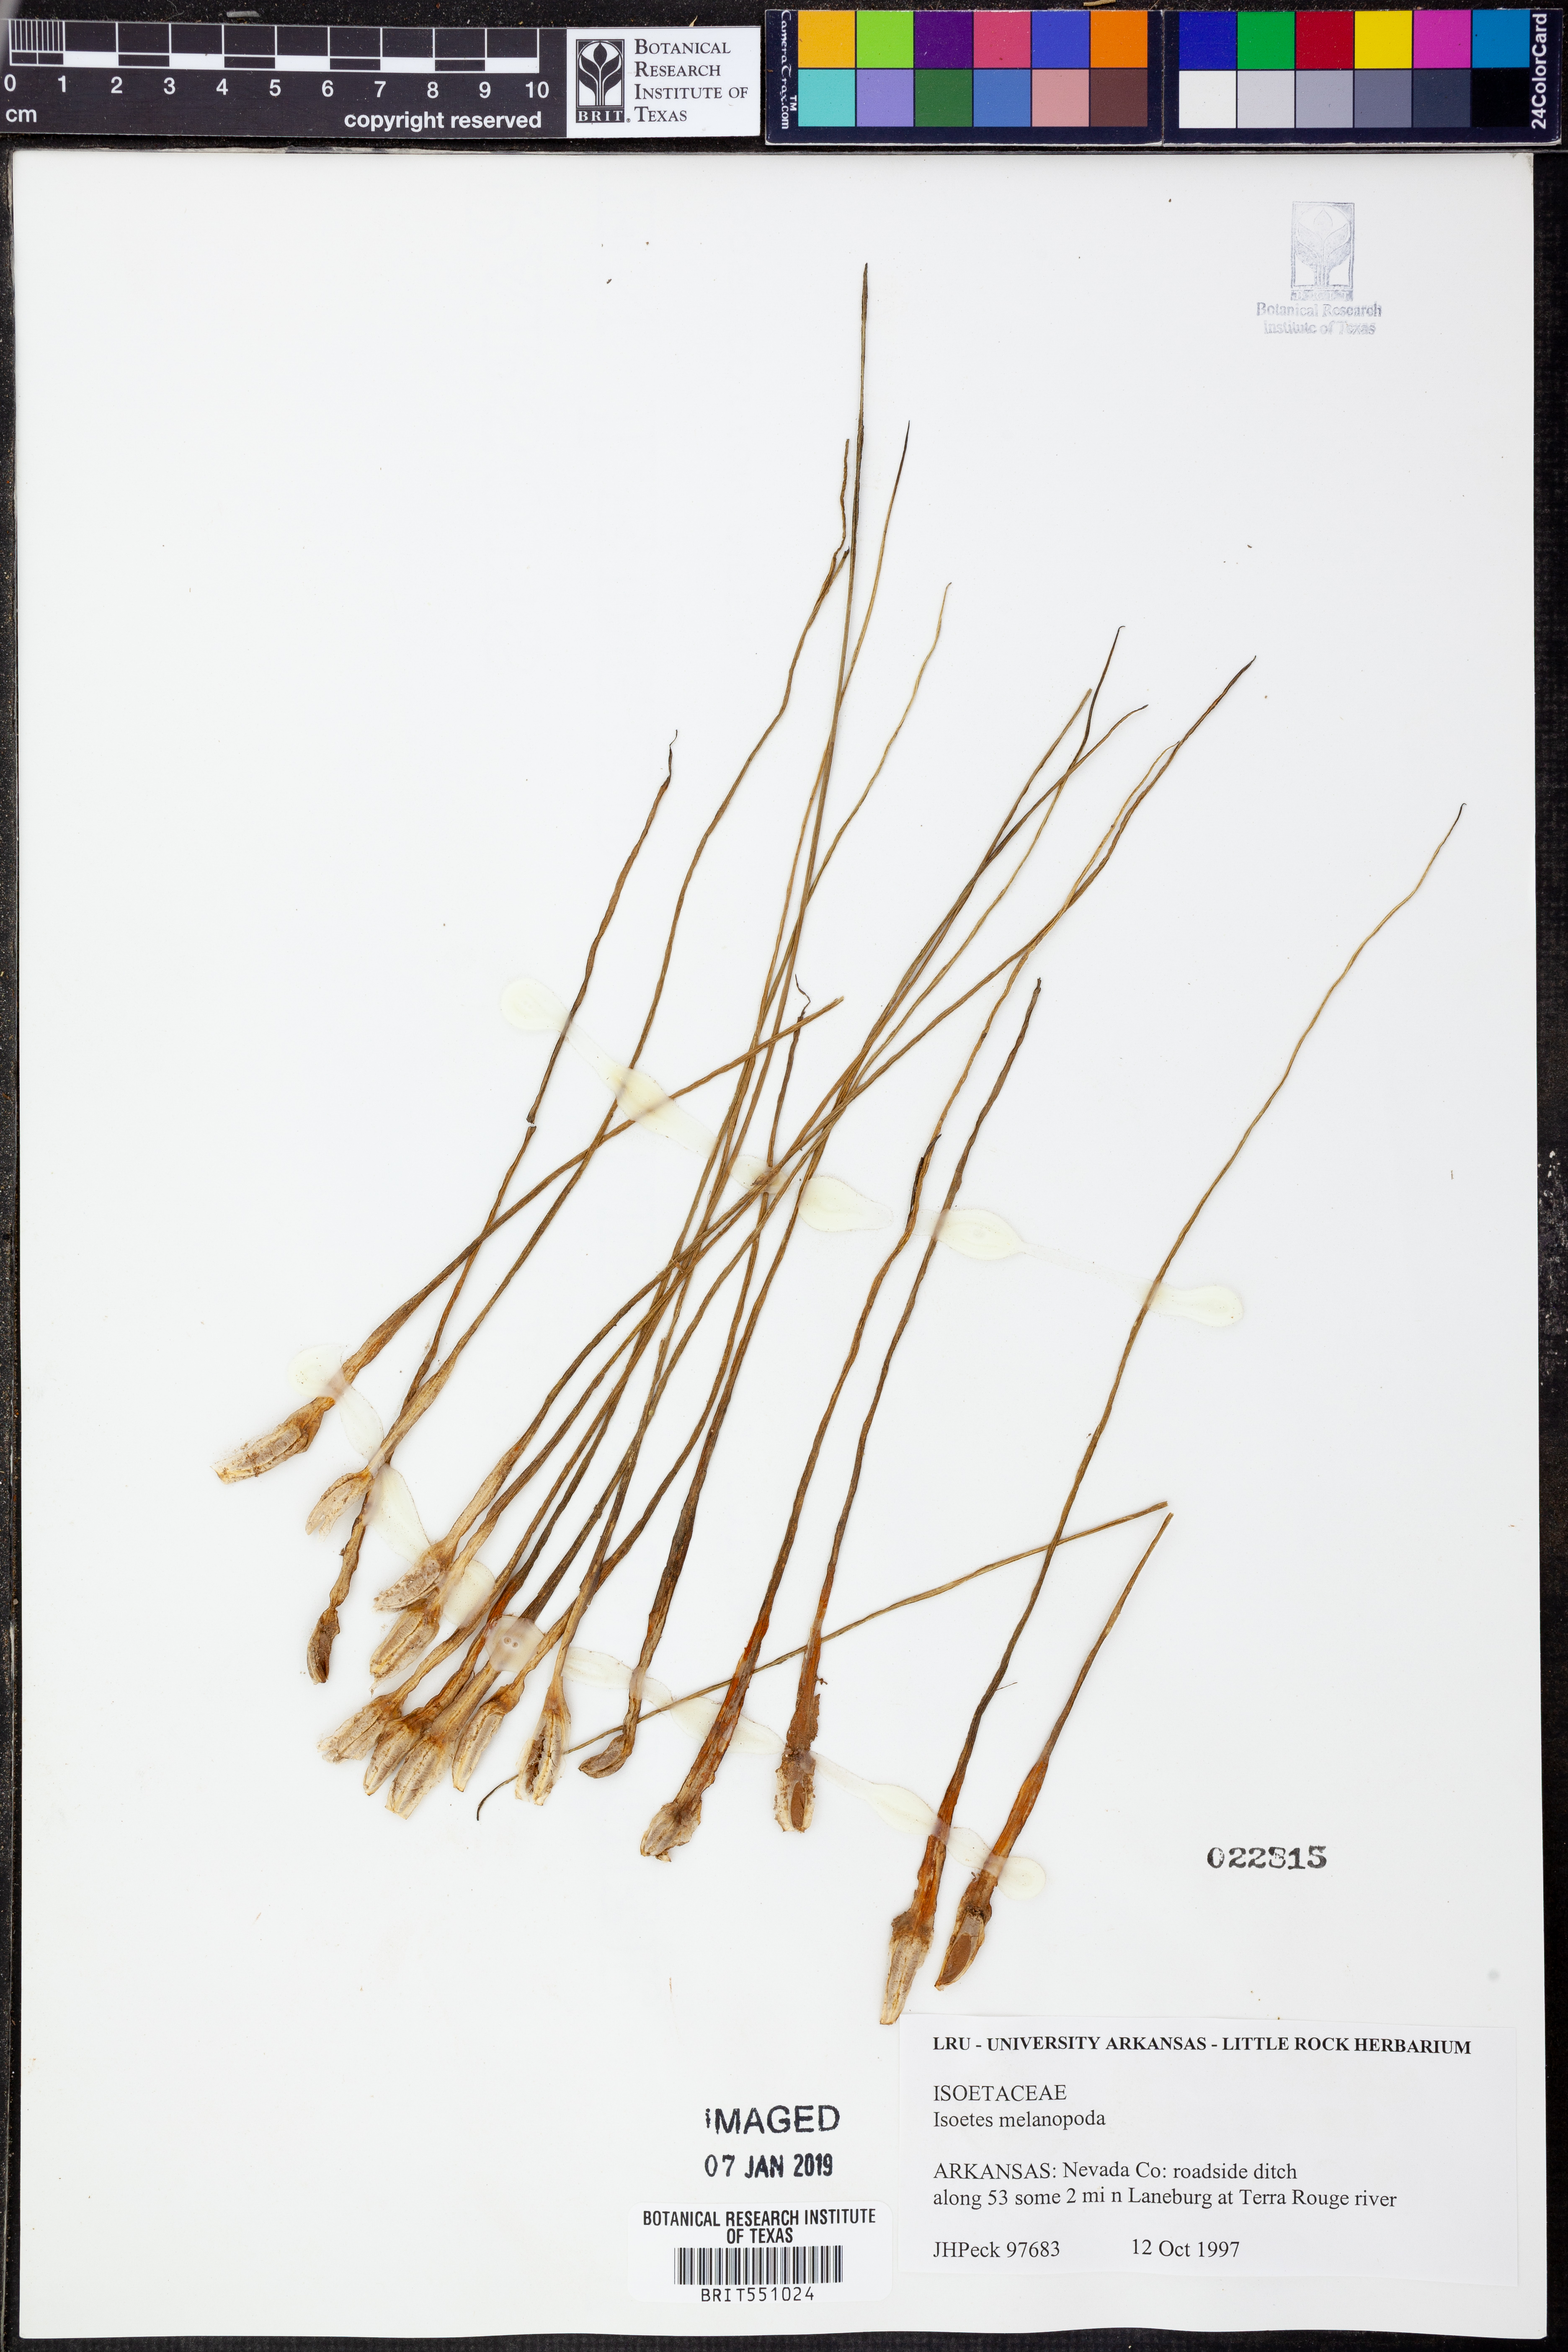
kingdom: Plantae
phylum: Tracheophyta
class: Lycopodiopsida
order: Isoetales
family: Isoetaceae
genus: Isoetes
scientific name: Isoetes melanopoda
